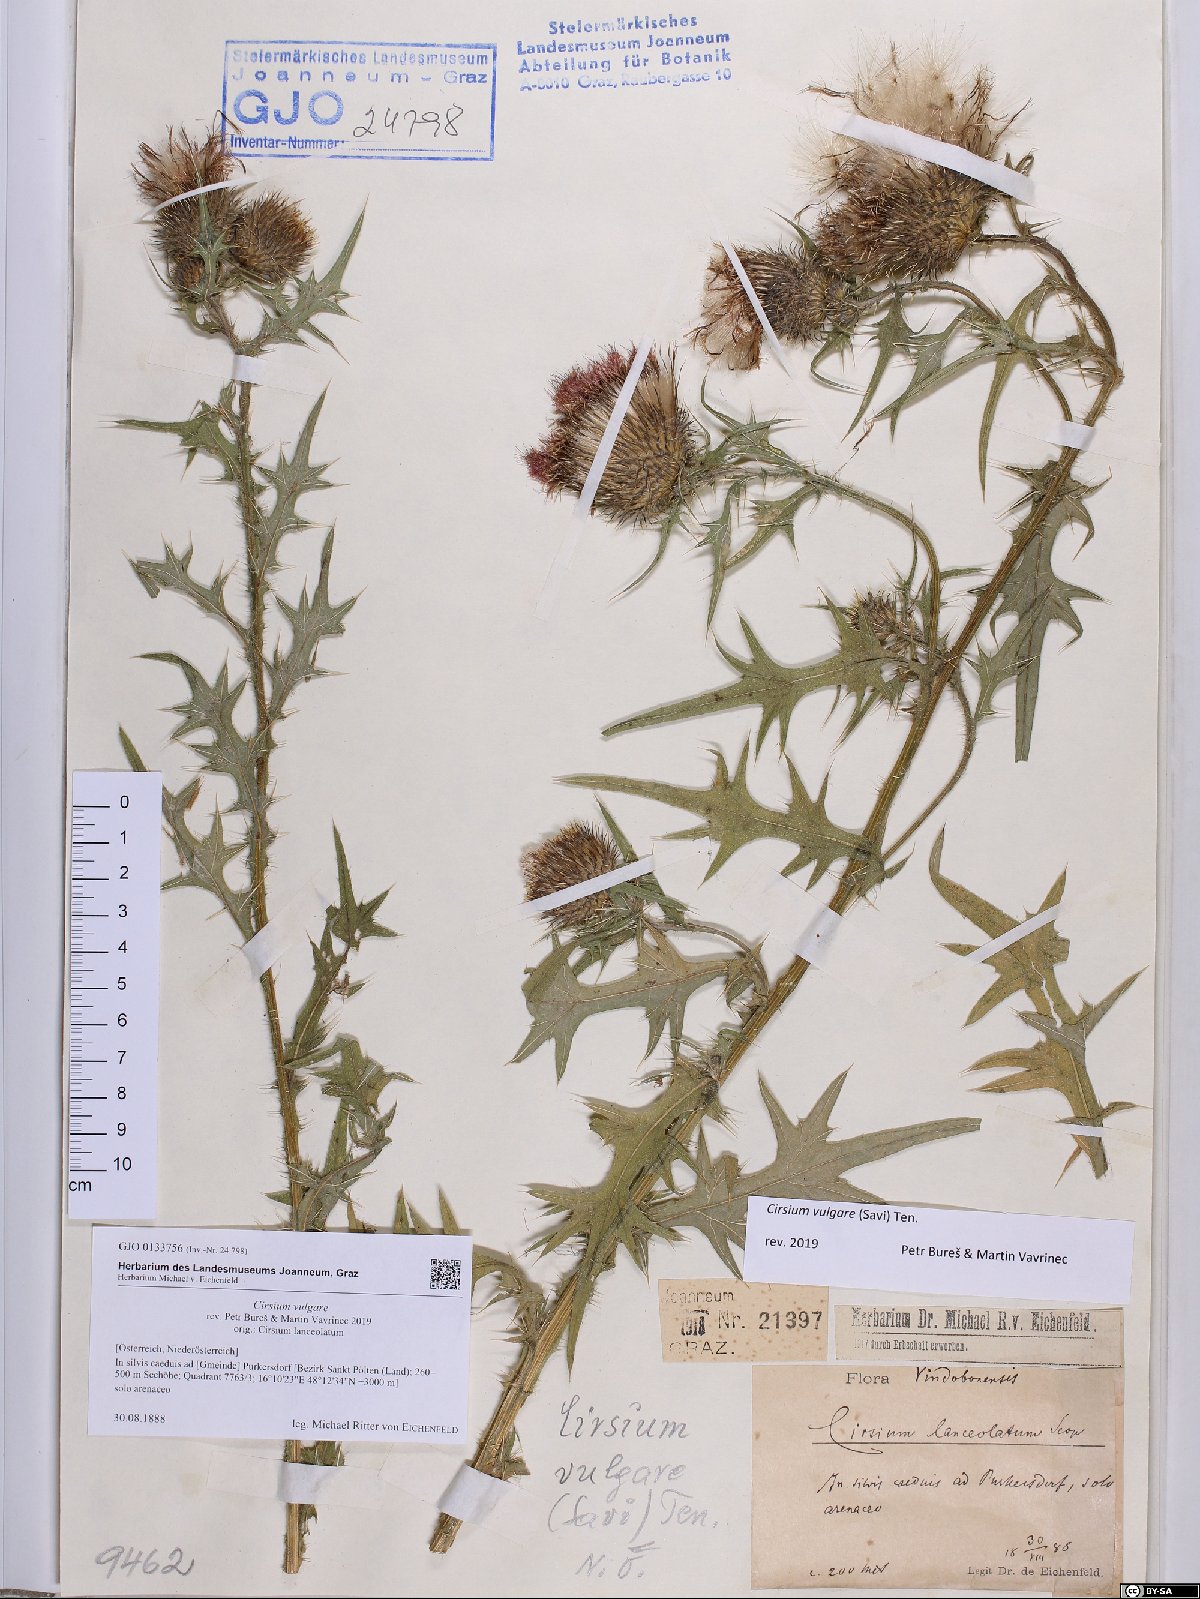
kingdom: Plantae
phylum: Tracheophyta
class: Magnoliopsida
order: Asterales
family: Asteraceae
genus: Cirsium
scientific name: Cirsium vulgare
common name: Bull thistle
